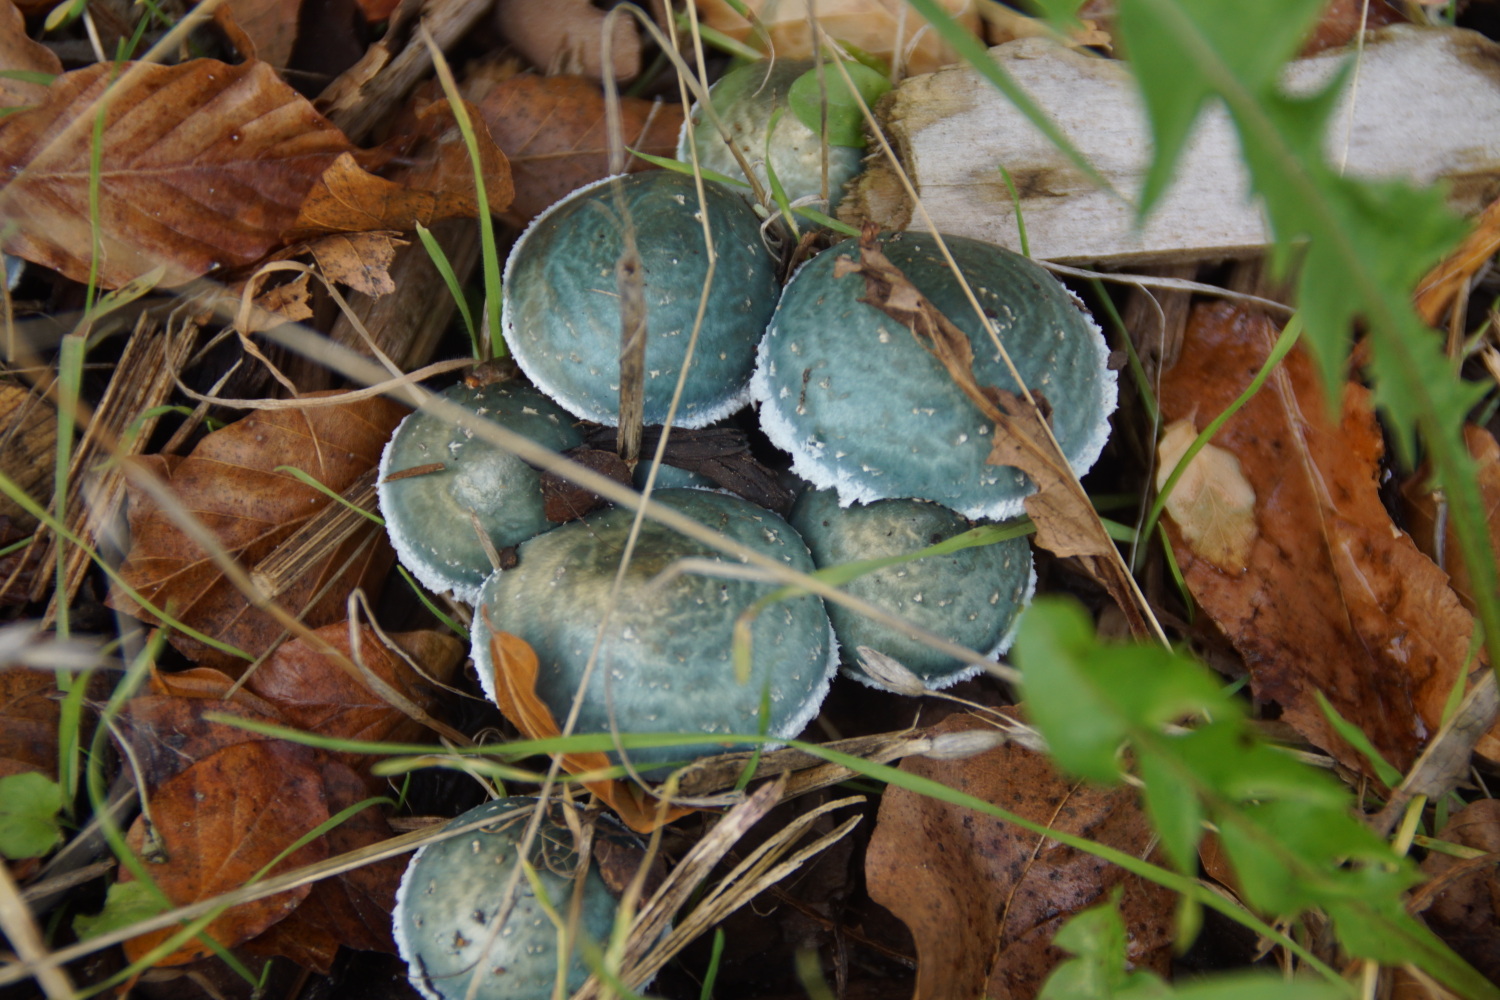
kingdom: Fungi
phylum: Basidiomycota
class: Agaricomycetes
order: Agaricales
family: Strophariaceae
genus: Stropharia
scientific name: Stropharia cyanea
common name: blågrøn bredblad
